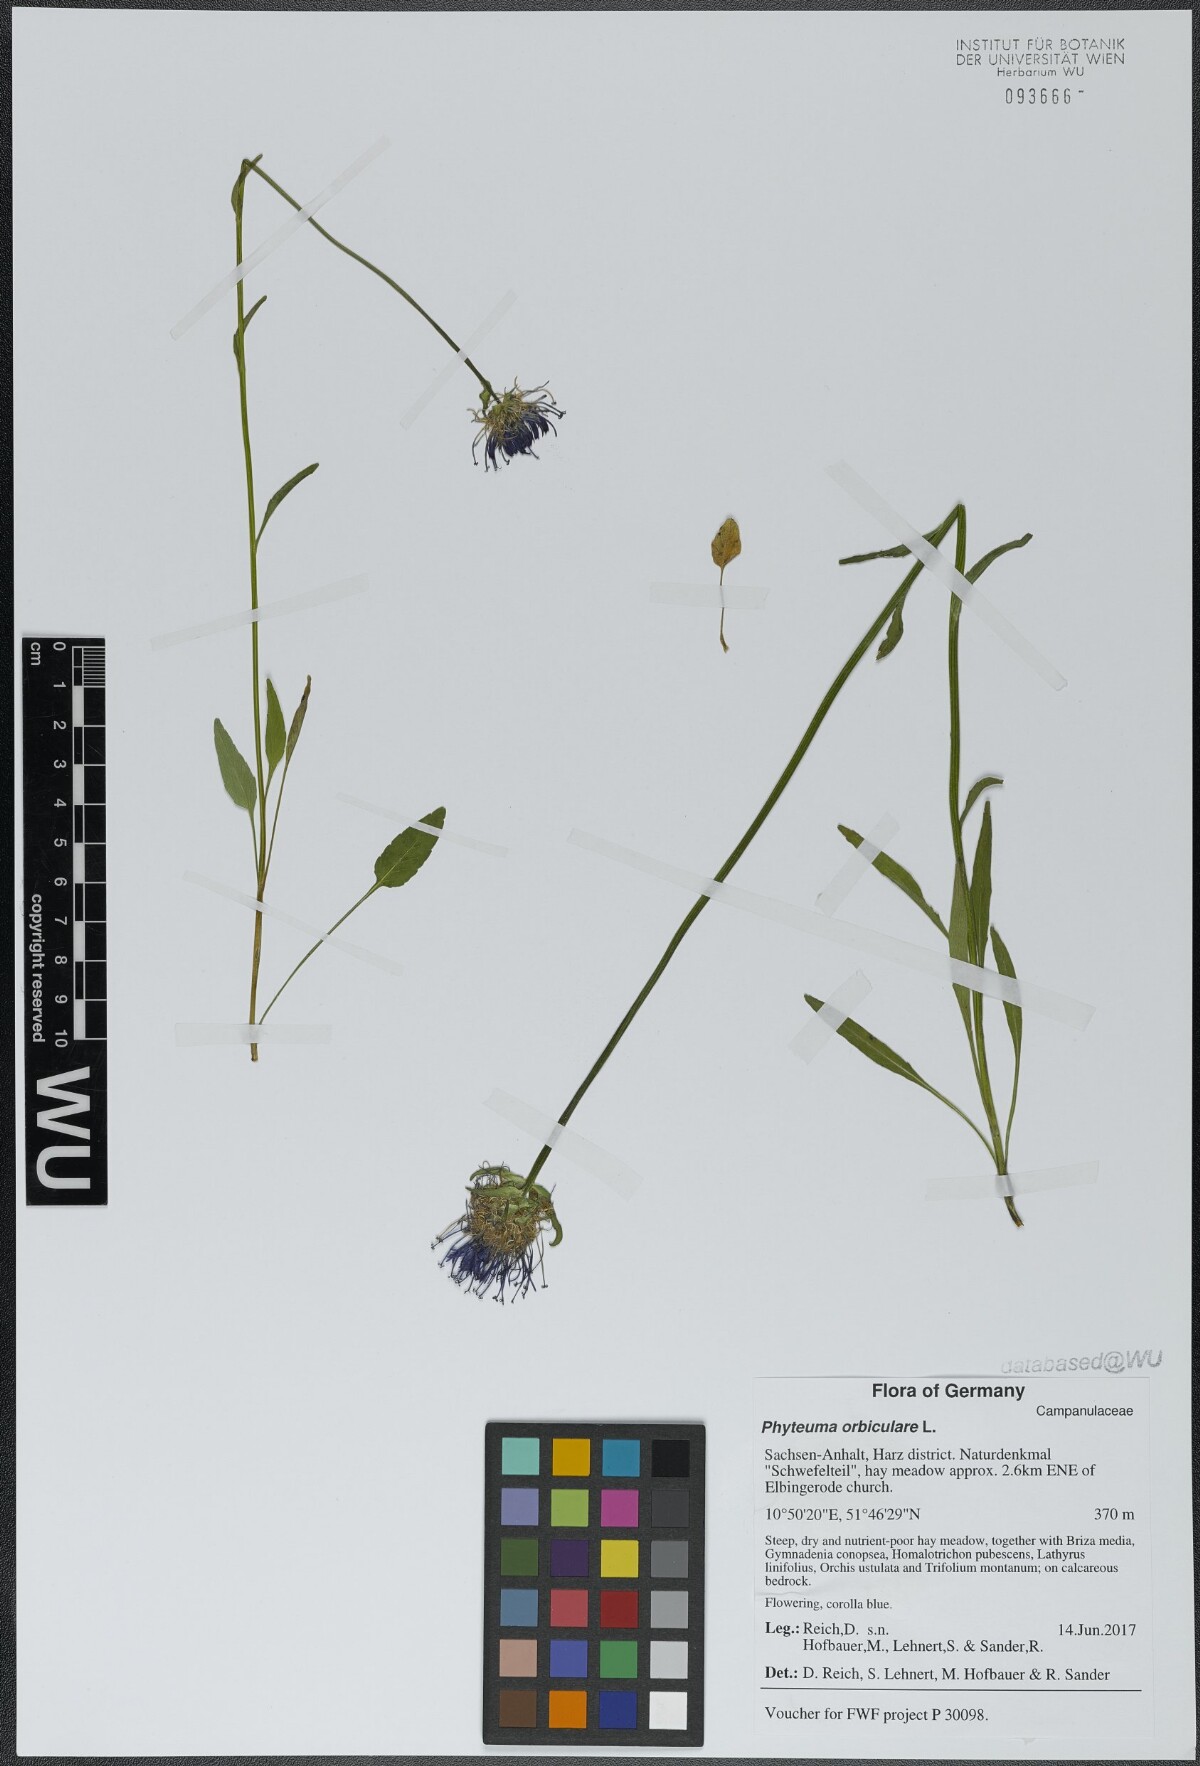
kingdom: Plantae
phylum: Tracheophyta
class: Magnoliopsida
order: Asterales
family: Campanulaceae
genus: Phyteuma
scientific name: Phyteuma orbiculare
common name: Round-headed rampion
